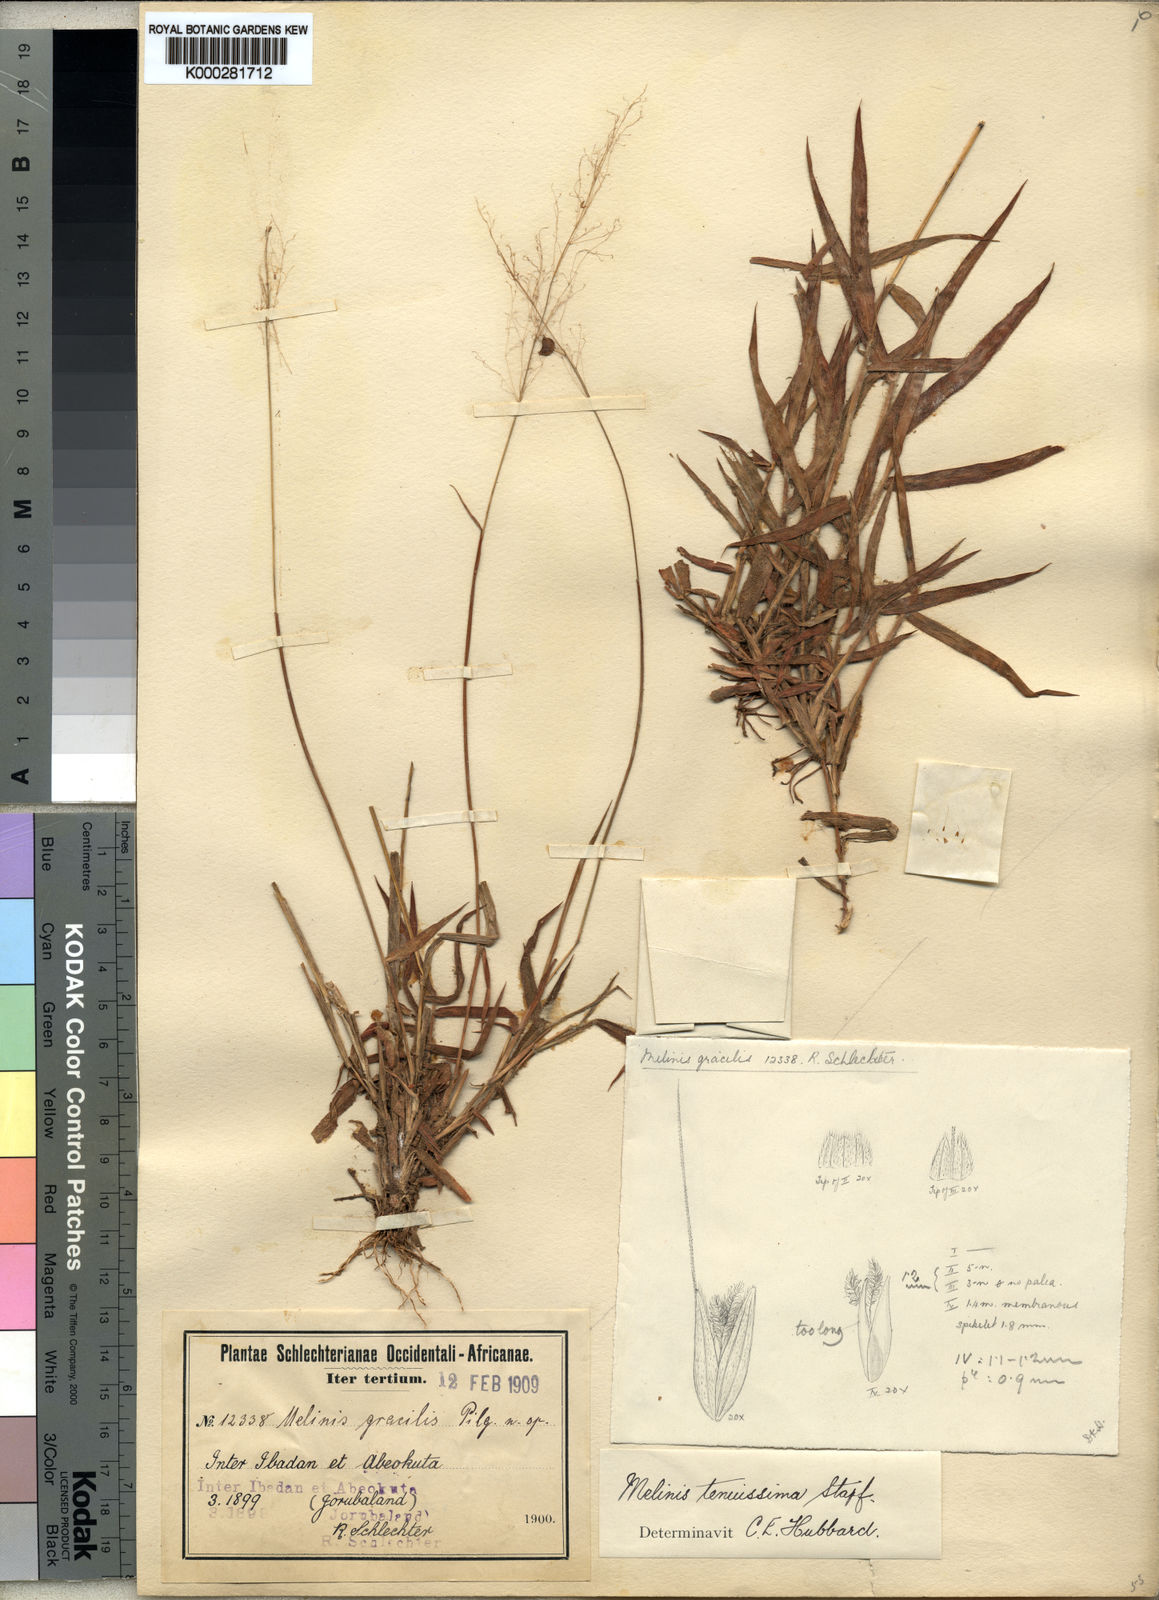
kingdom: Plantae
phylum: Tracheophyta
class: Liliopsida
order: Poales
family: Poaceae
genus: Melinis
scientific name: Melinis tenuissima
